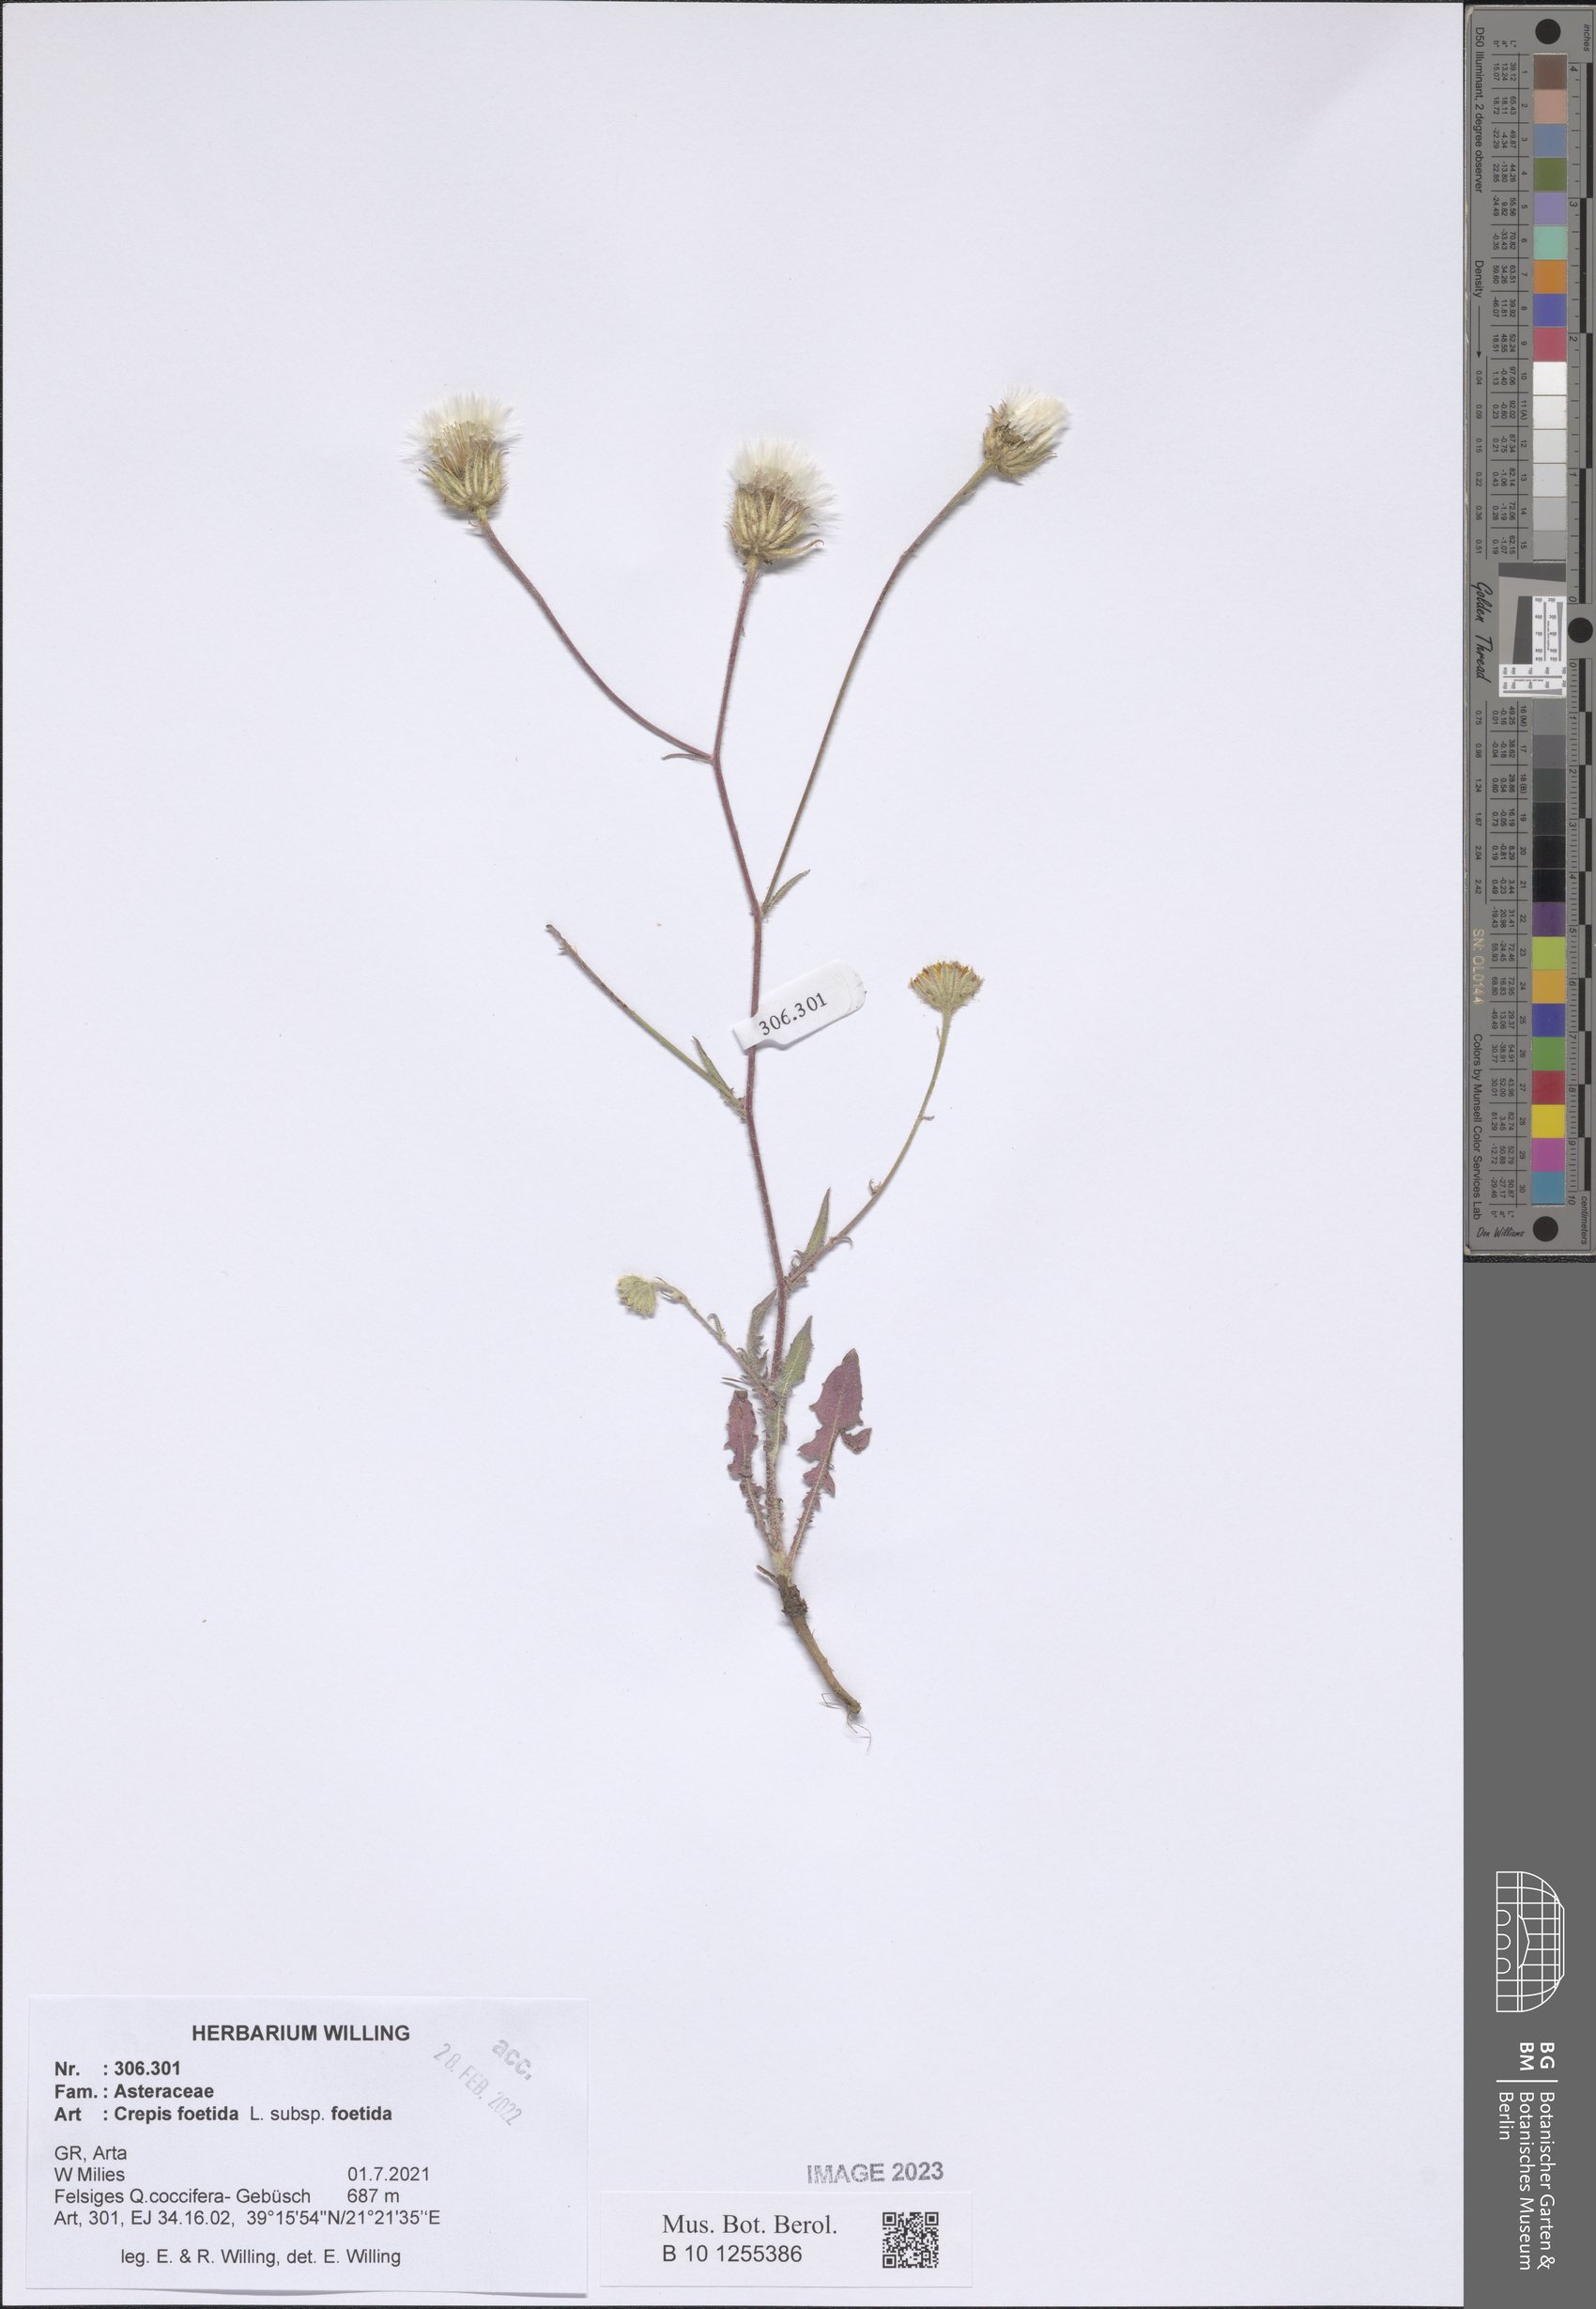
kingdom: Plantae
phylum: Tracheophyta
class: Magnoliopsida
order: Asterales
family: Asteraceae
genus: Crepis
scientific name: Crepis foetida
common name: Stinking hawk's-beard
